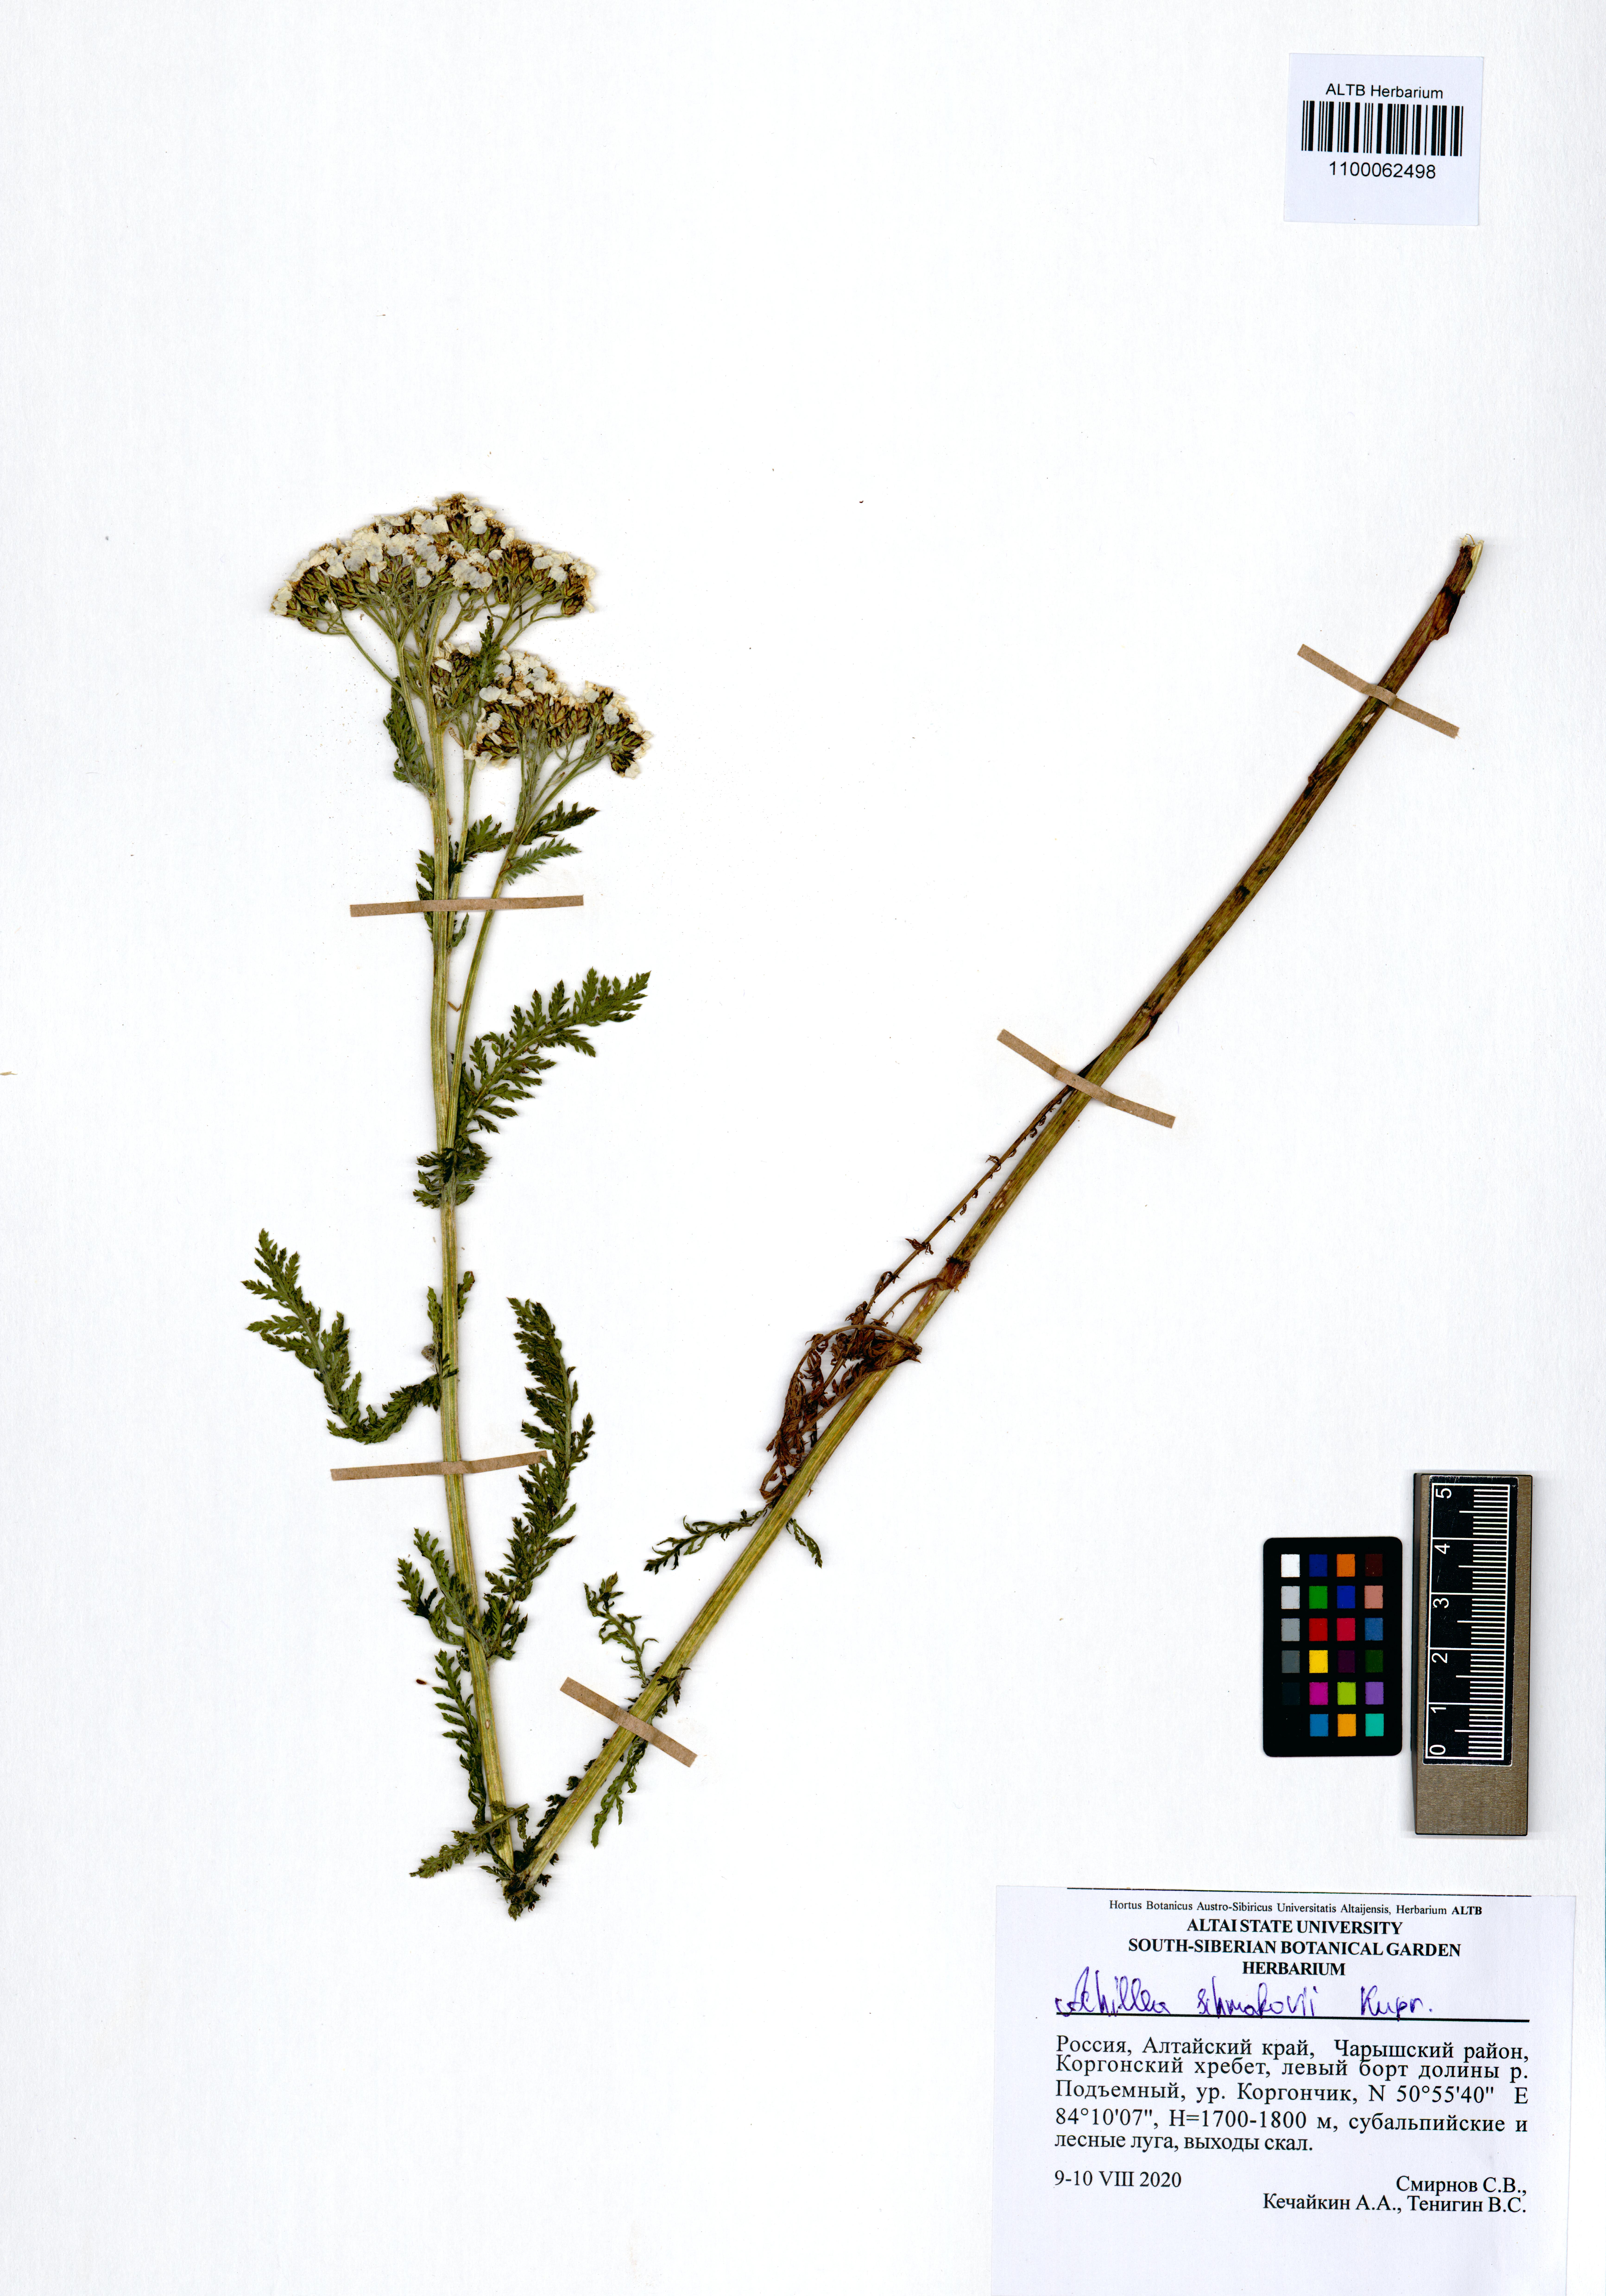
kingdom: Plantae
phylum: Tracheophyta
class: Magnoliopsida
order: Asterales
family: Asteraceae
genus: Achillea
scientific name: Achillea schmakovii
